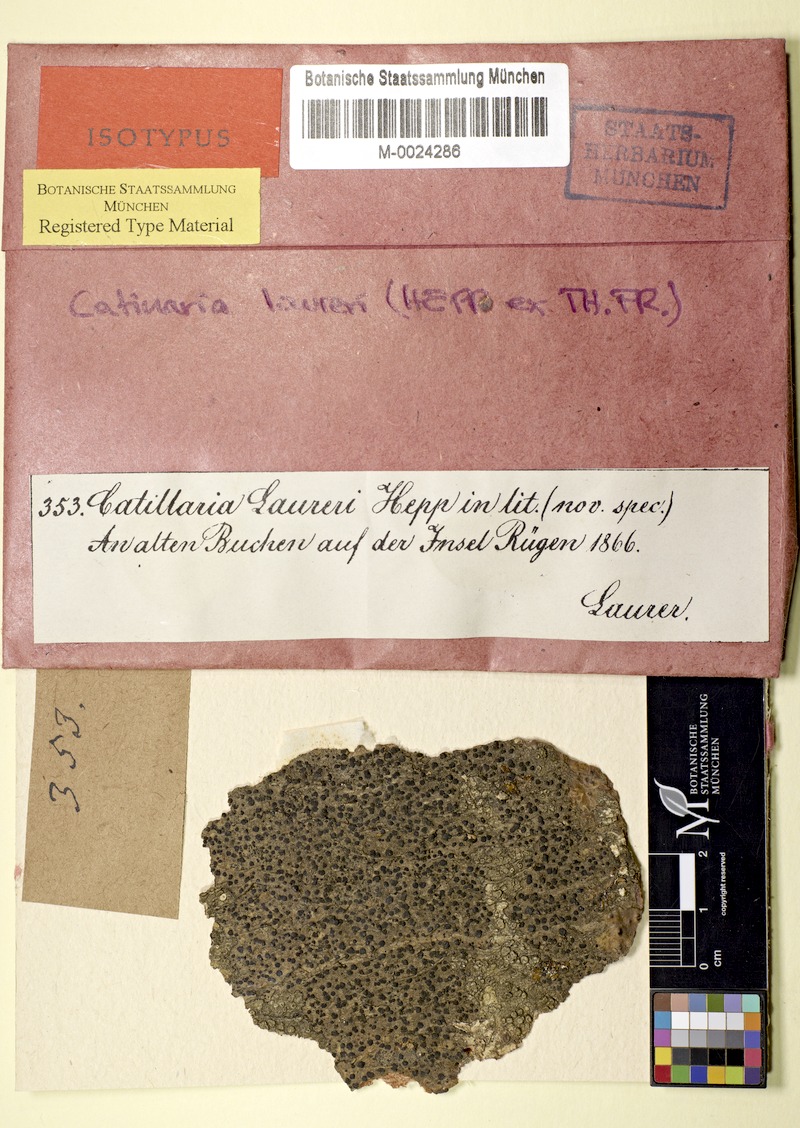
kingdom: Fungi
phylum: Ascomycota
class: Lecanoromycetes
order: Lecanorales
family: Ramalinaceae
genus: Megalaria
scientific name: Megalaria laureri
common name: Laurer's catillaria
